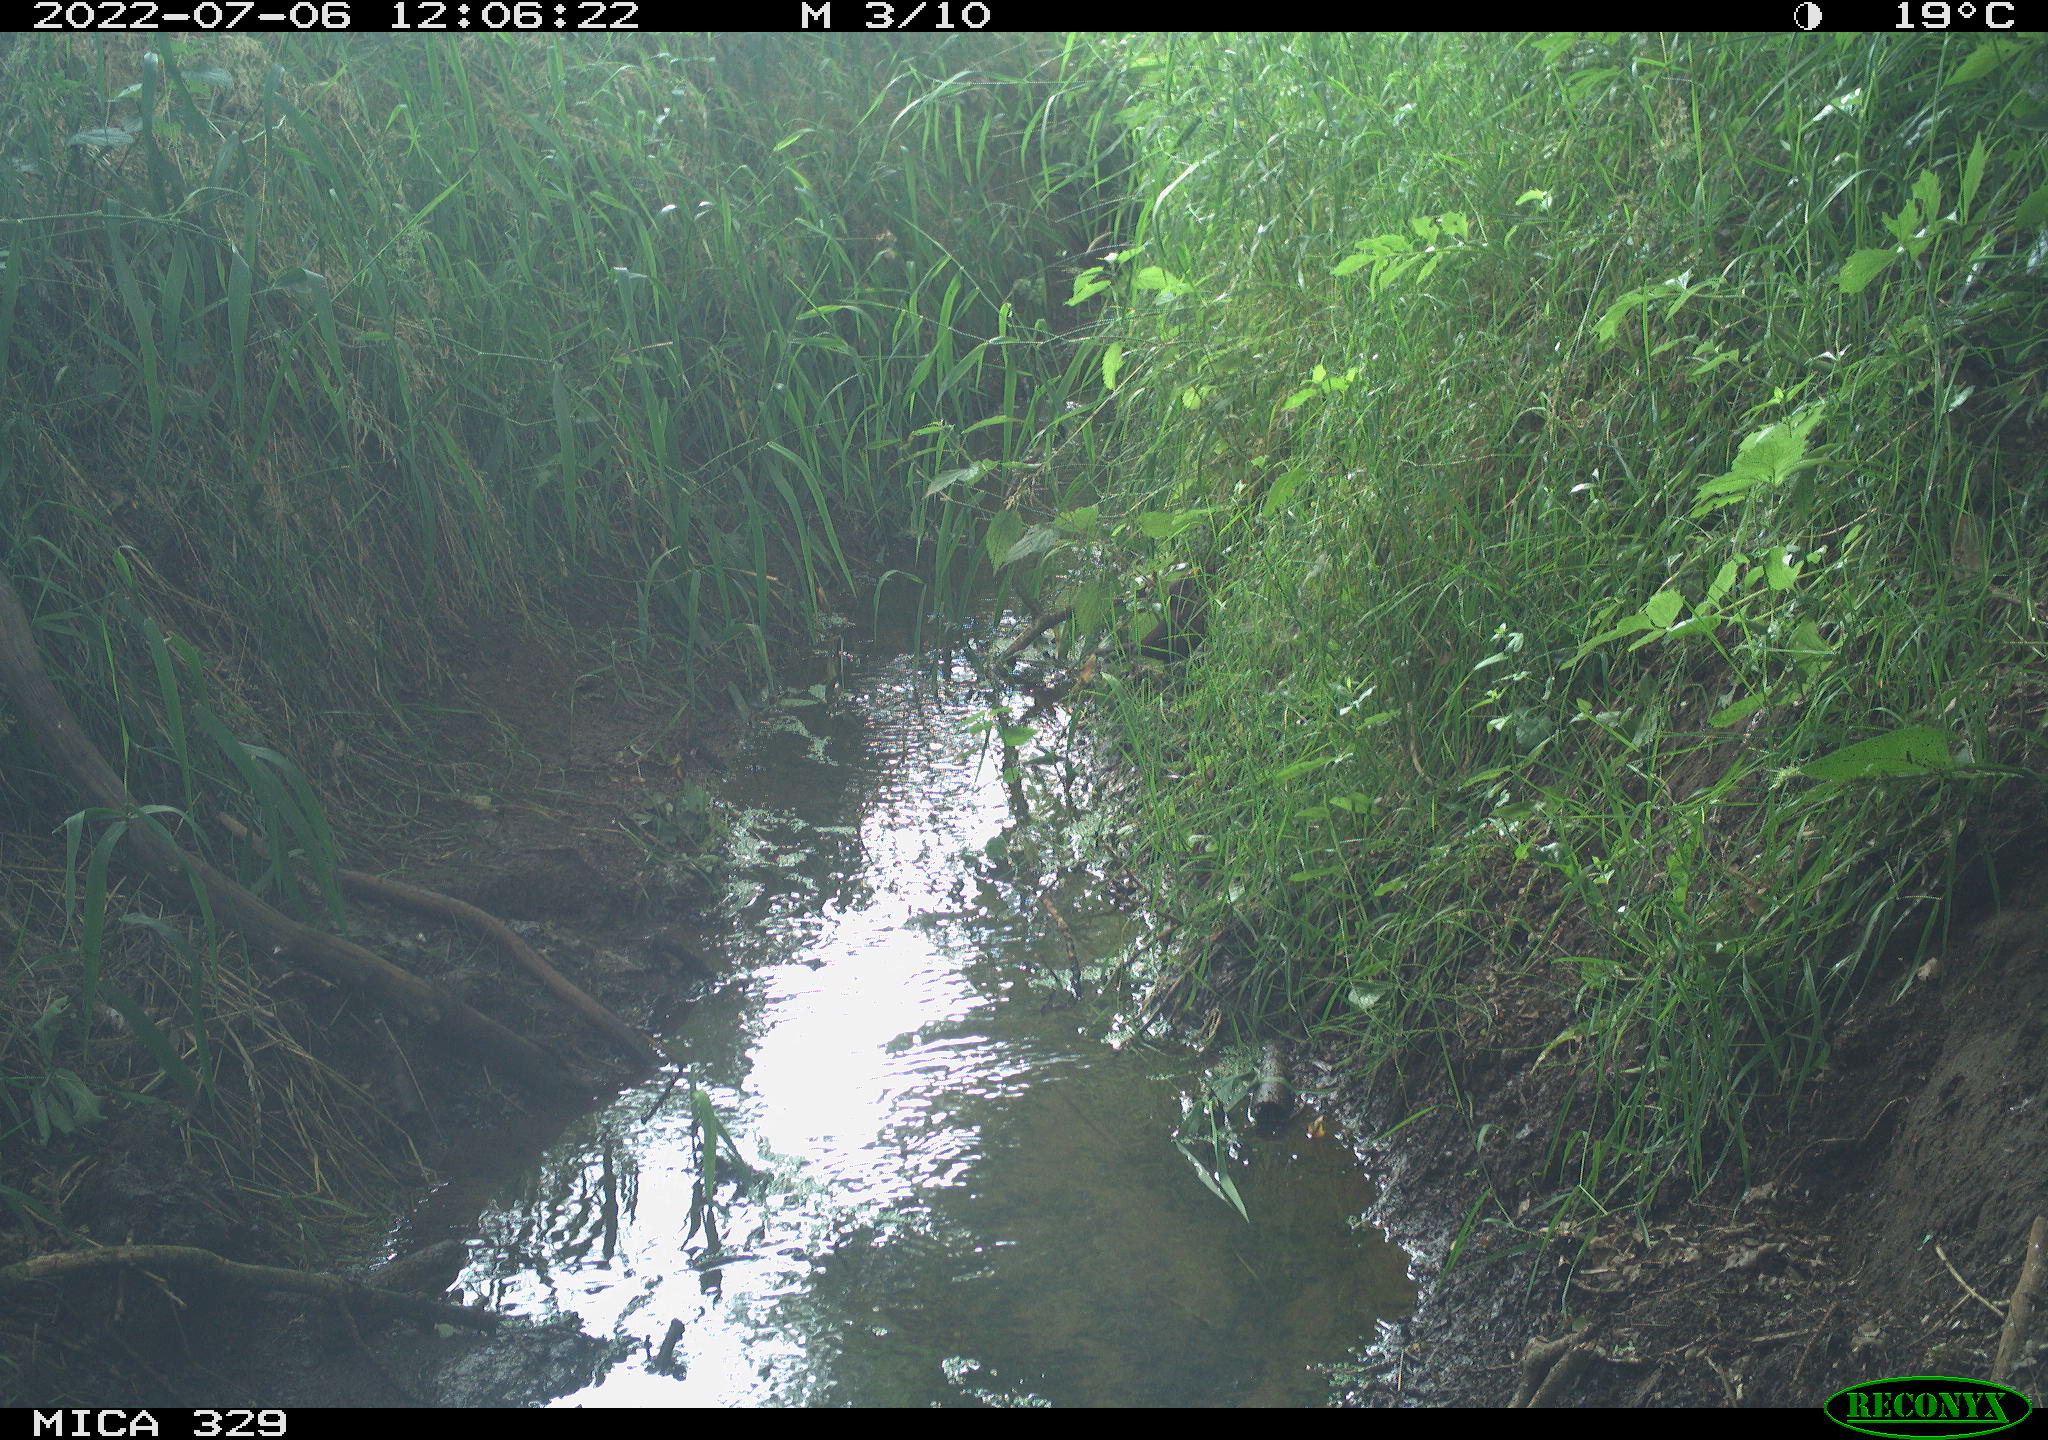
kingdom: Animalia
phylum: Chordata
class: Aves
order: Passeriformes
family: Turdidae
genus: Turdus
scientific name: Turdus merula
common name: Common blackbird
